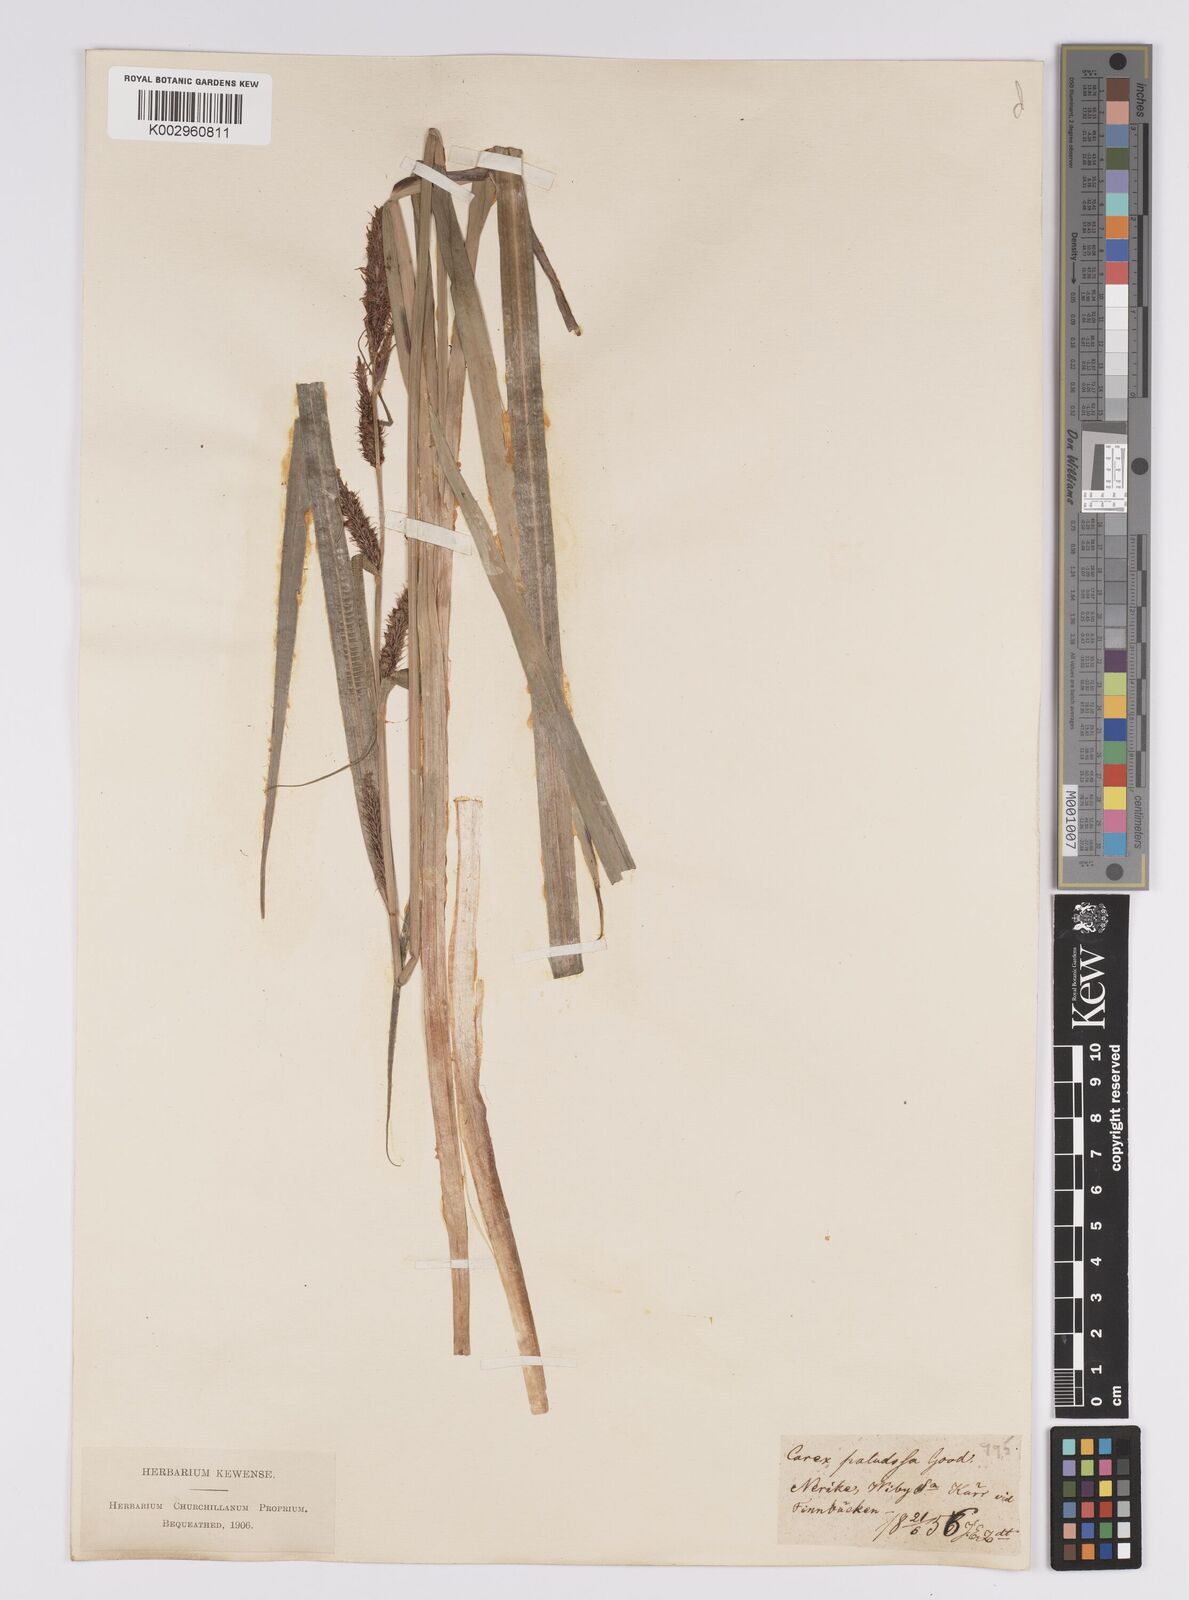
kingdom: Plantae
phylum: Tracheophyta
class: Liliopsida
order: Poales
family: Cyperaceae
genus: Carex
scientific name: Carex acutiformis
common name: Lesser pond-sedge
